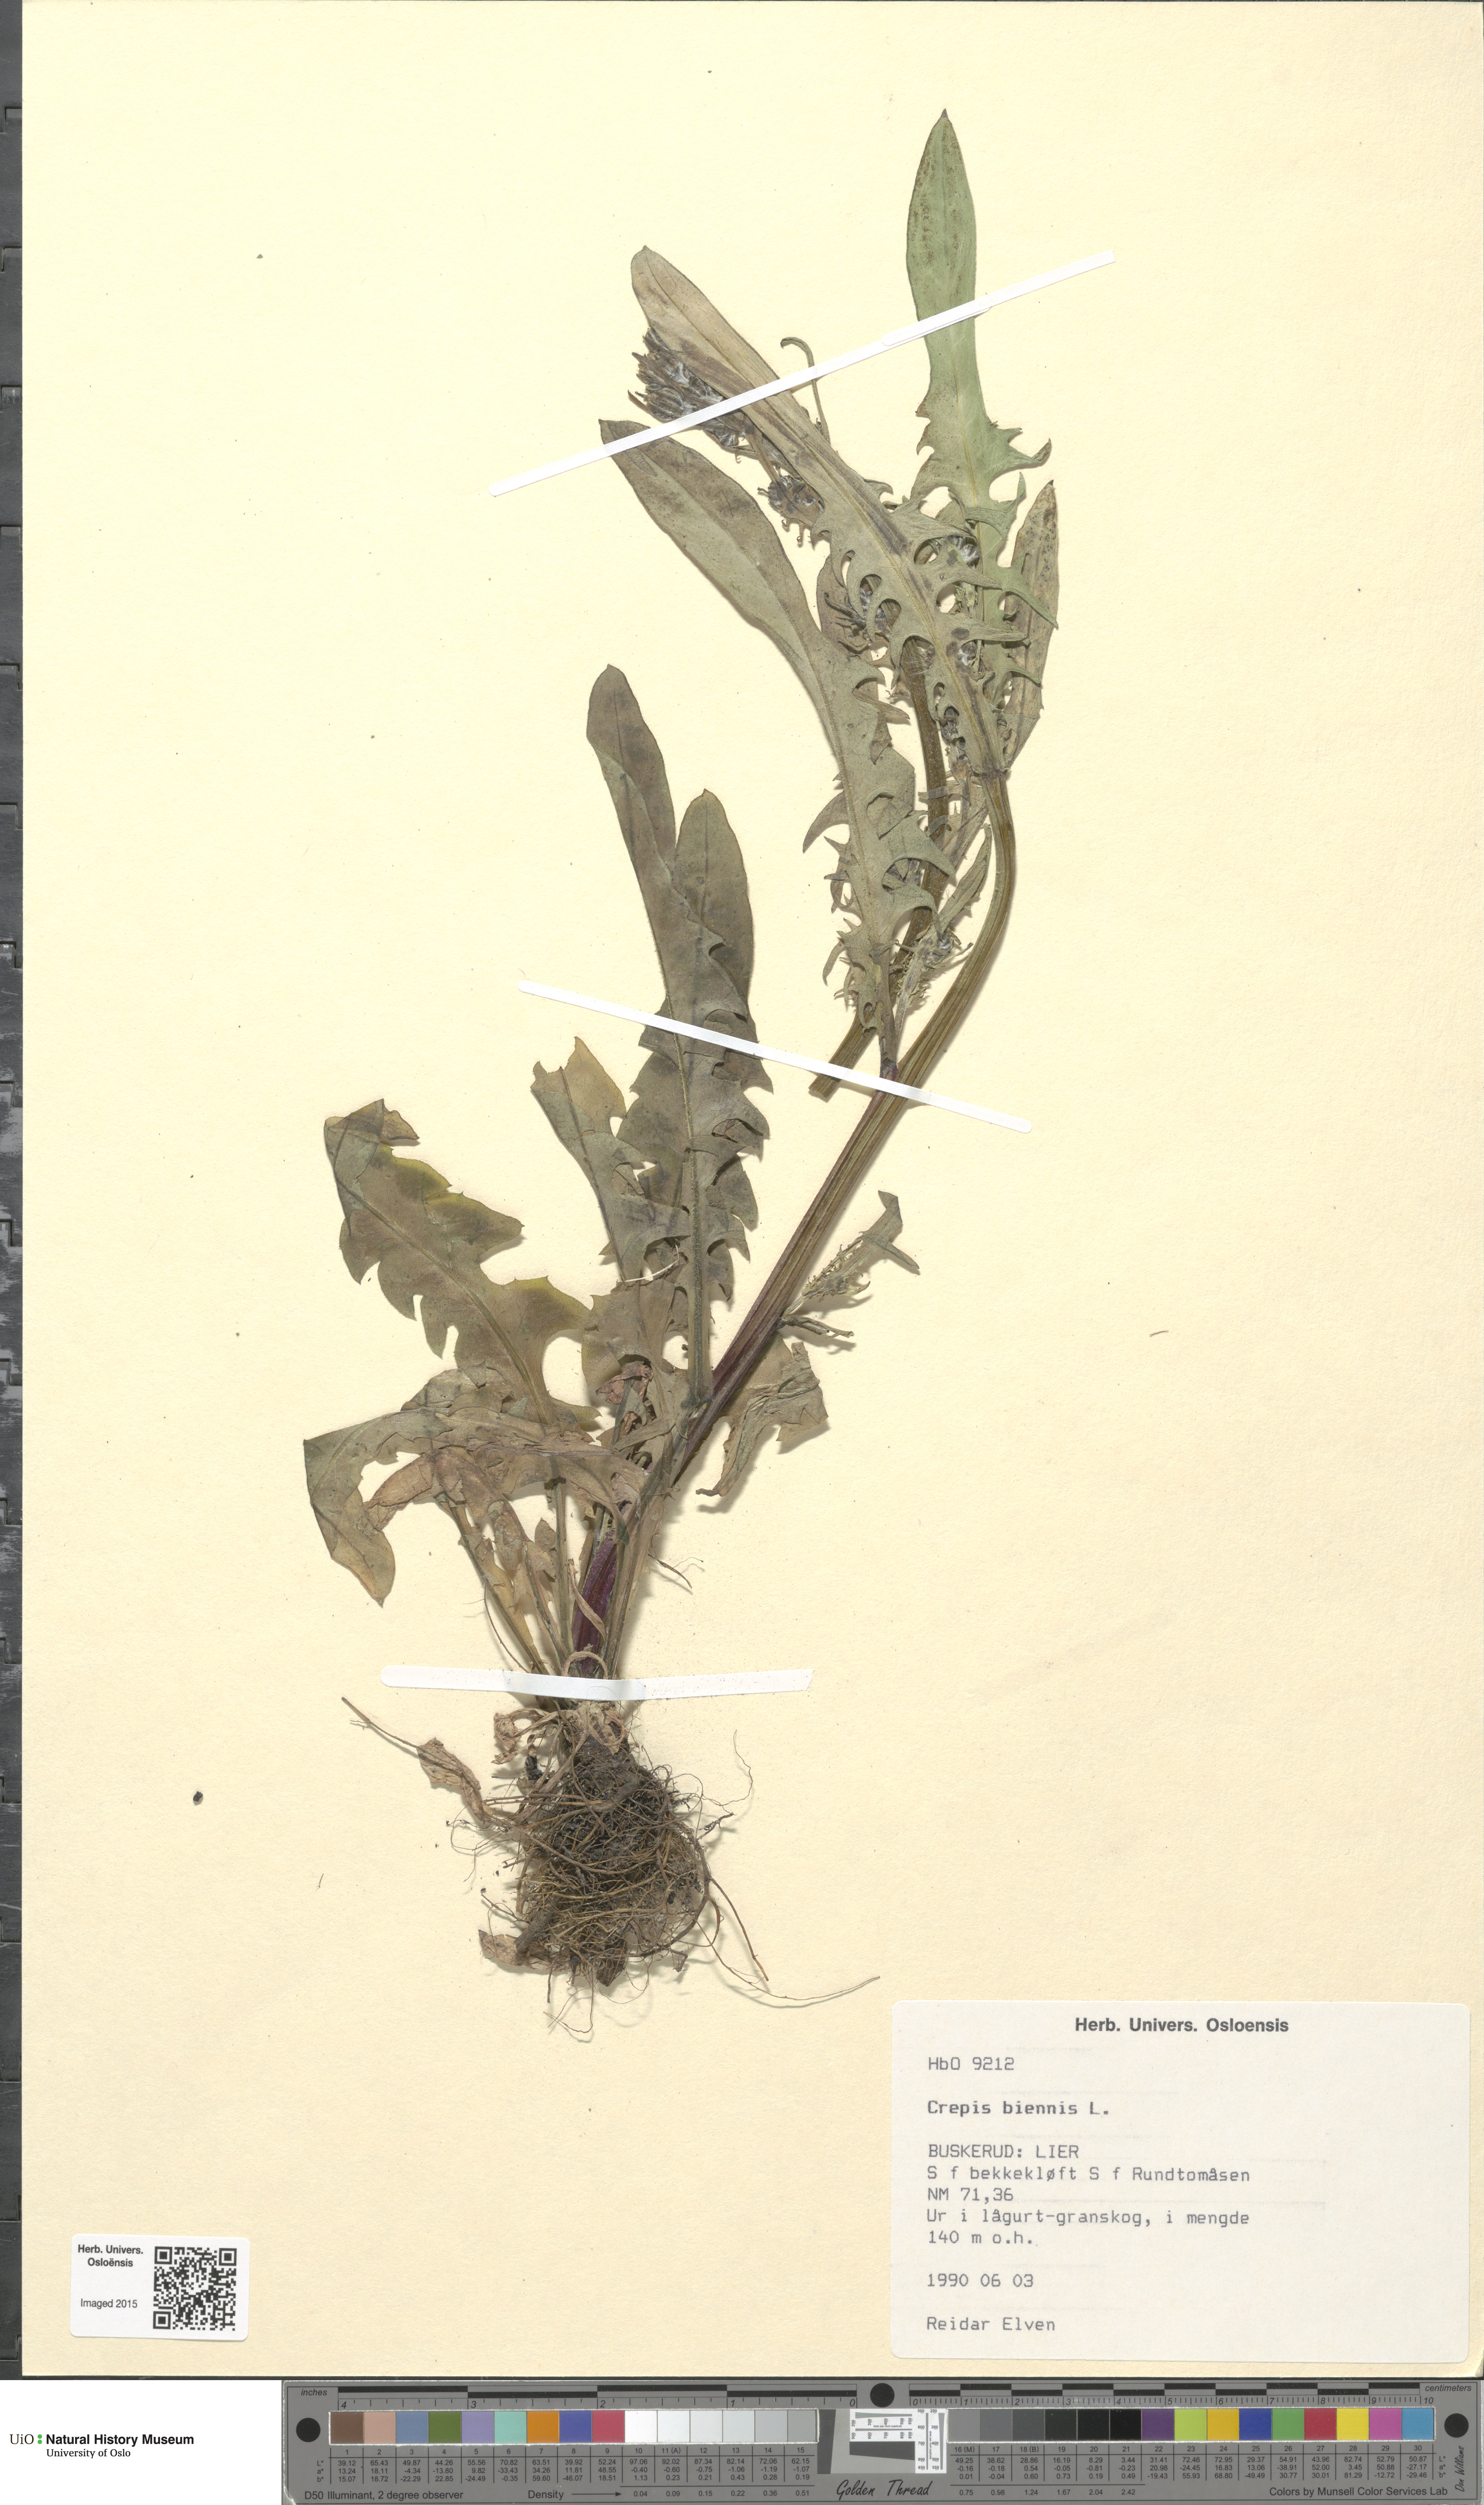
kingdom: Plantae
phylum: Tracheophyta
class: Magnoliopsida
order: Asterales
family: Asteraceae
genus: Crepis
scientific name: Crepis biennis
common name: Rough hawk's-beard
